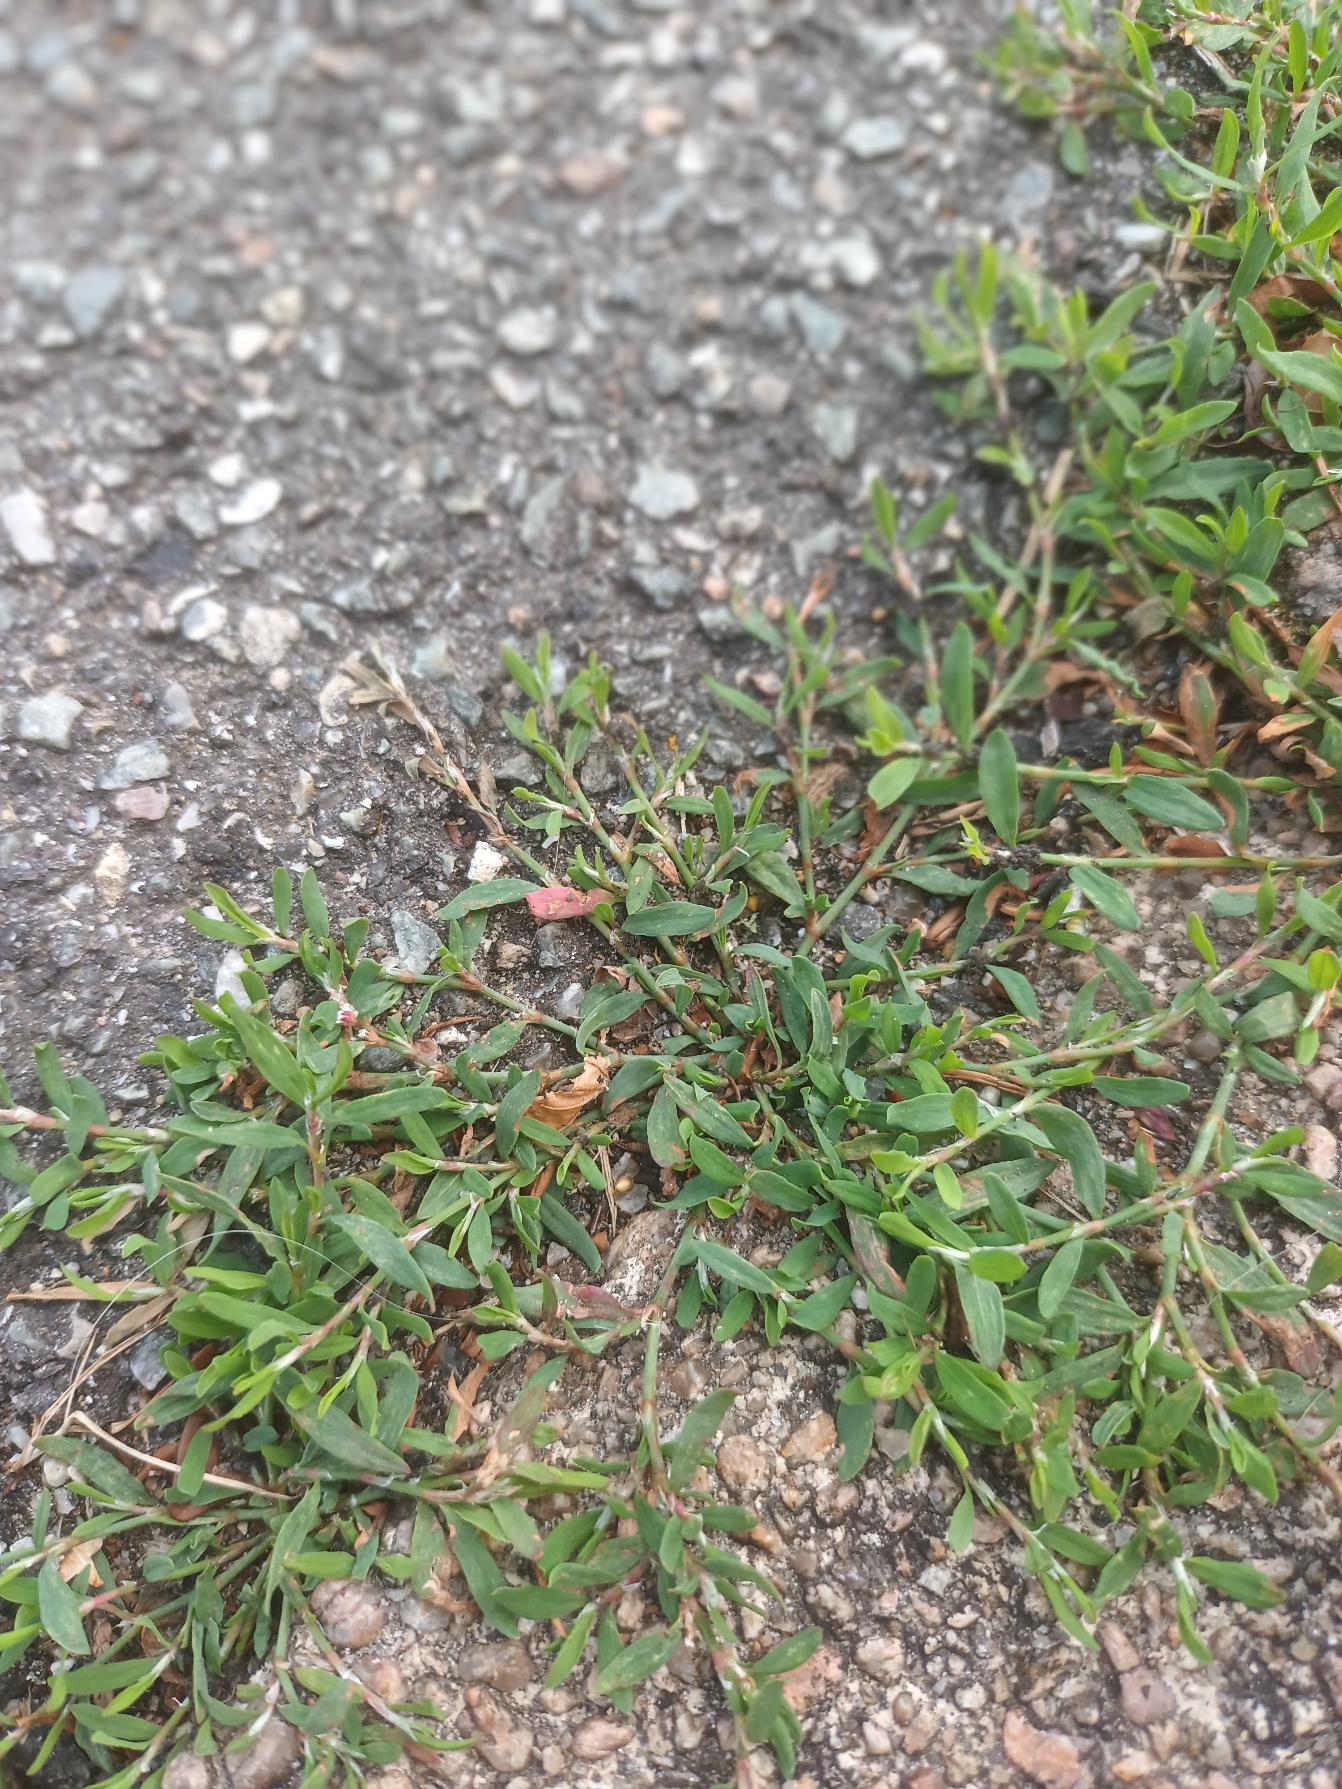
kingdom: Plantae
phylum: Tracheophyta
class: Magnoliopsida
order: Caryophyllales
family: Polygonaceae
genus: Polygonum
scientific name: Polygonum arenastrum
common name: Liggende vej-pileurt
